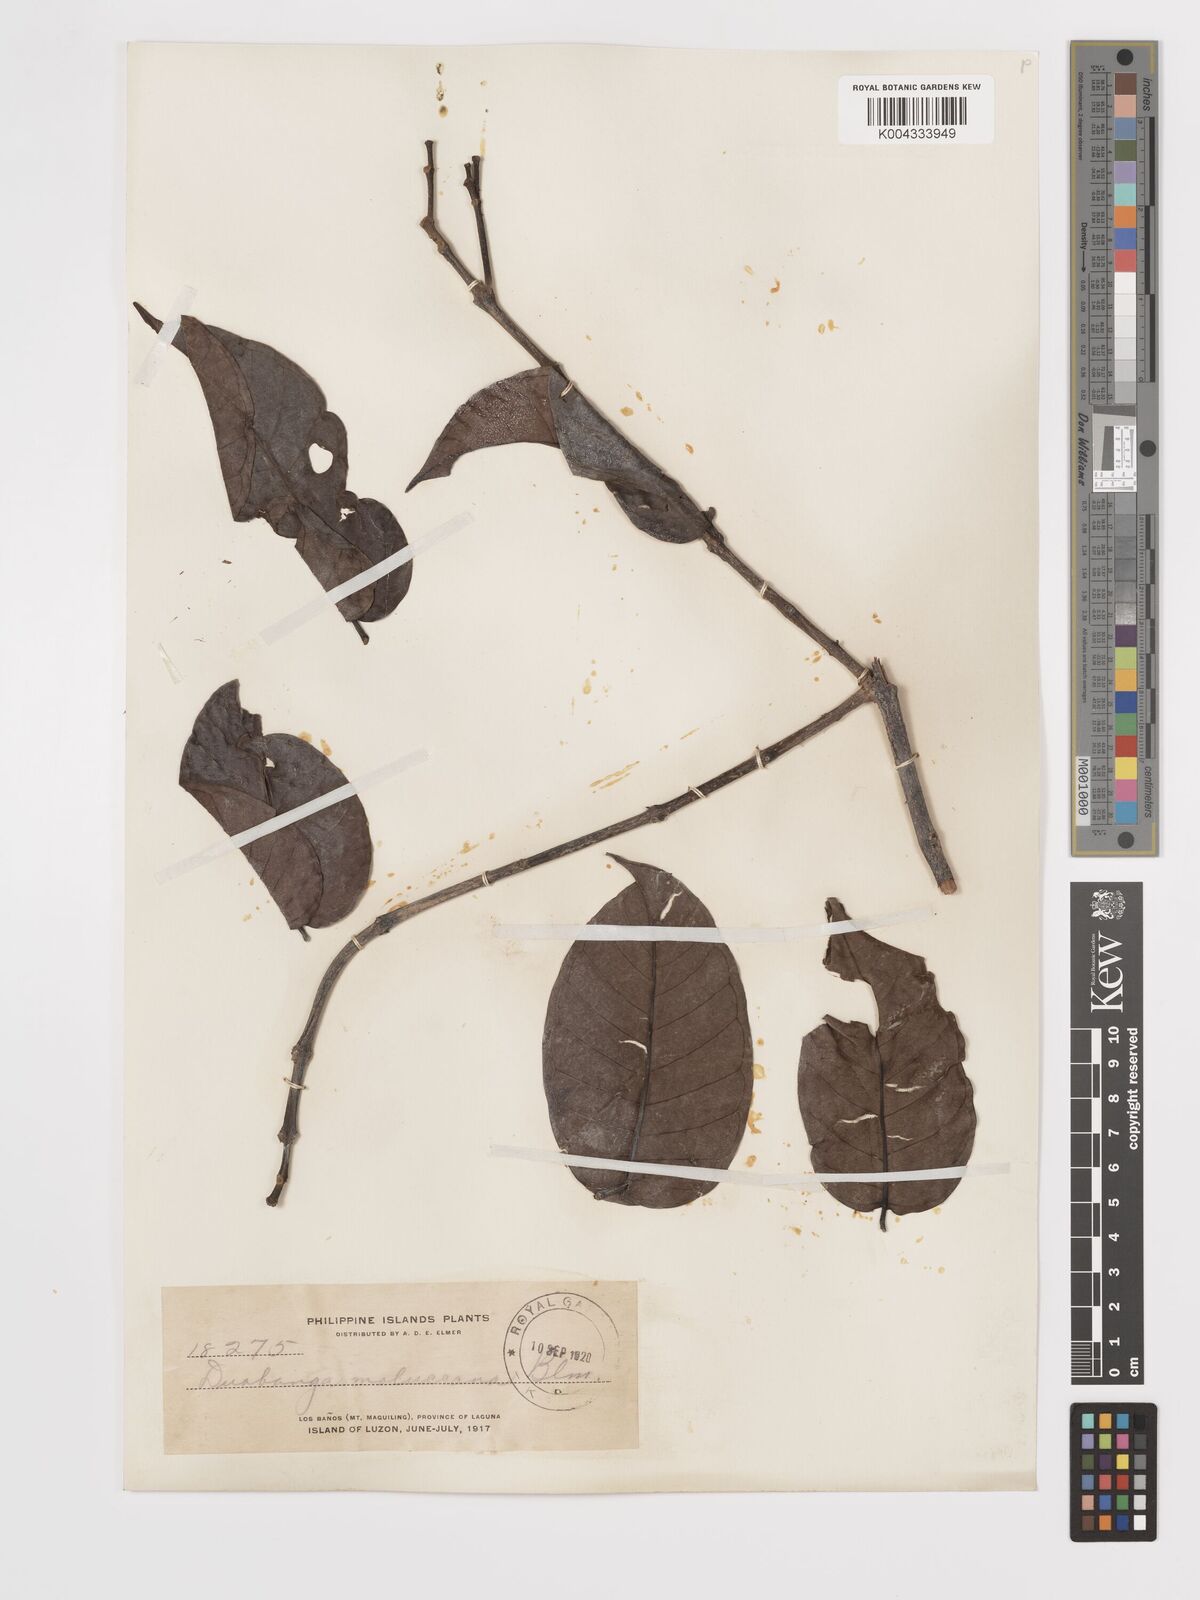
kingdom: Plantae
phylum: Tracheophyta
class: Magnoliopsida
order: Myrtales
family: Lythraceae
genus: Duabanga
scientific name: Duabanga moluccana
